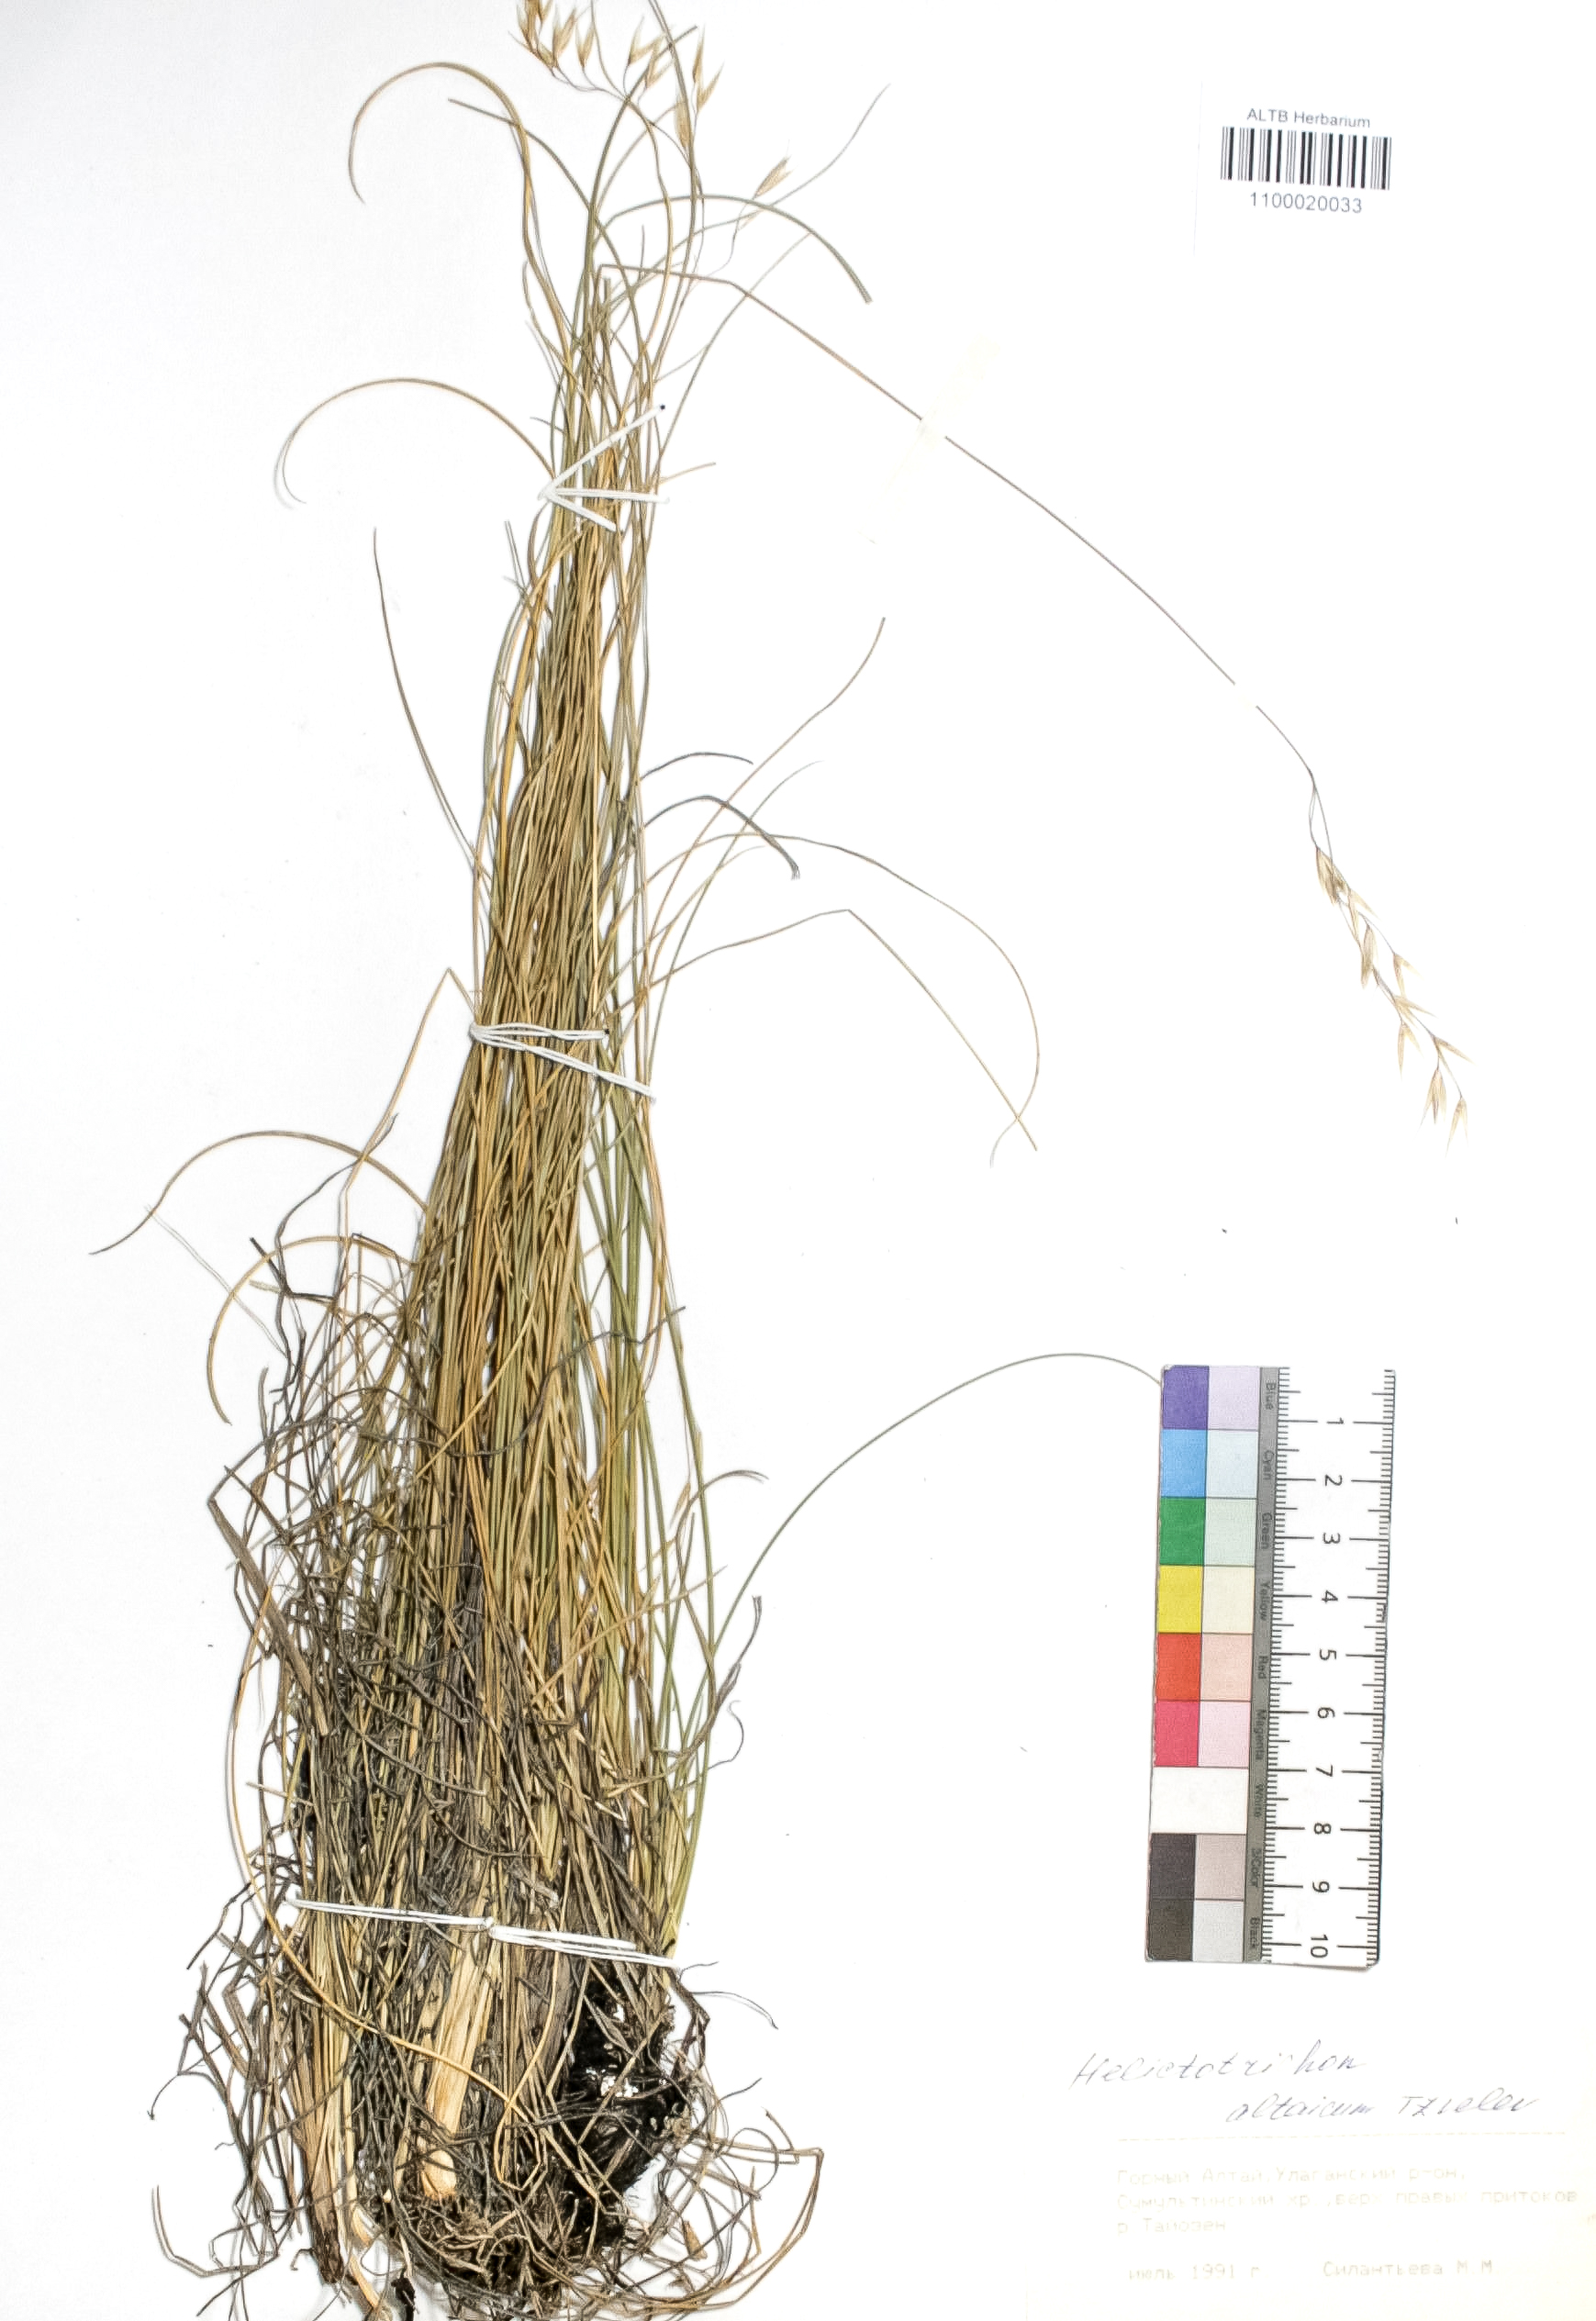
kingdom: Plantae
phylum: Tracheophyta
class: Liliopsida
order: Poales
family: Poaceae
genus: Helictotrichon
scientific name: Helictotrichon desertorum
